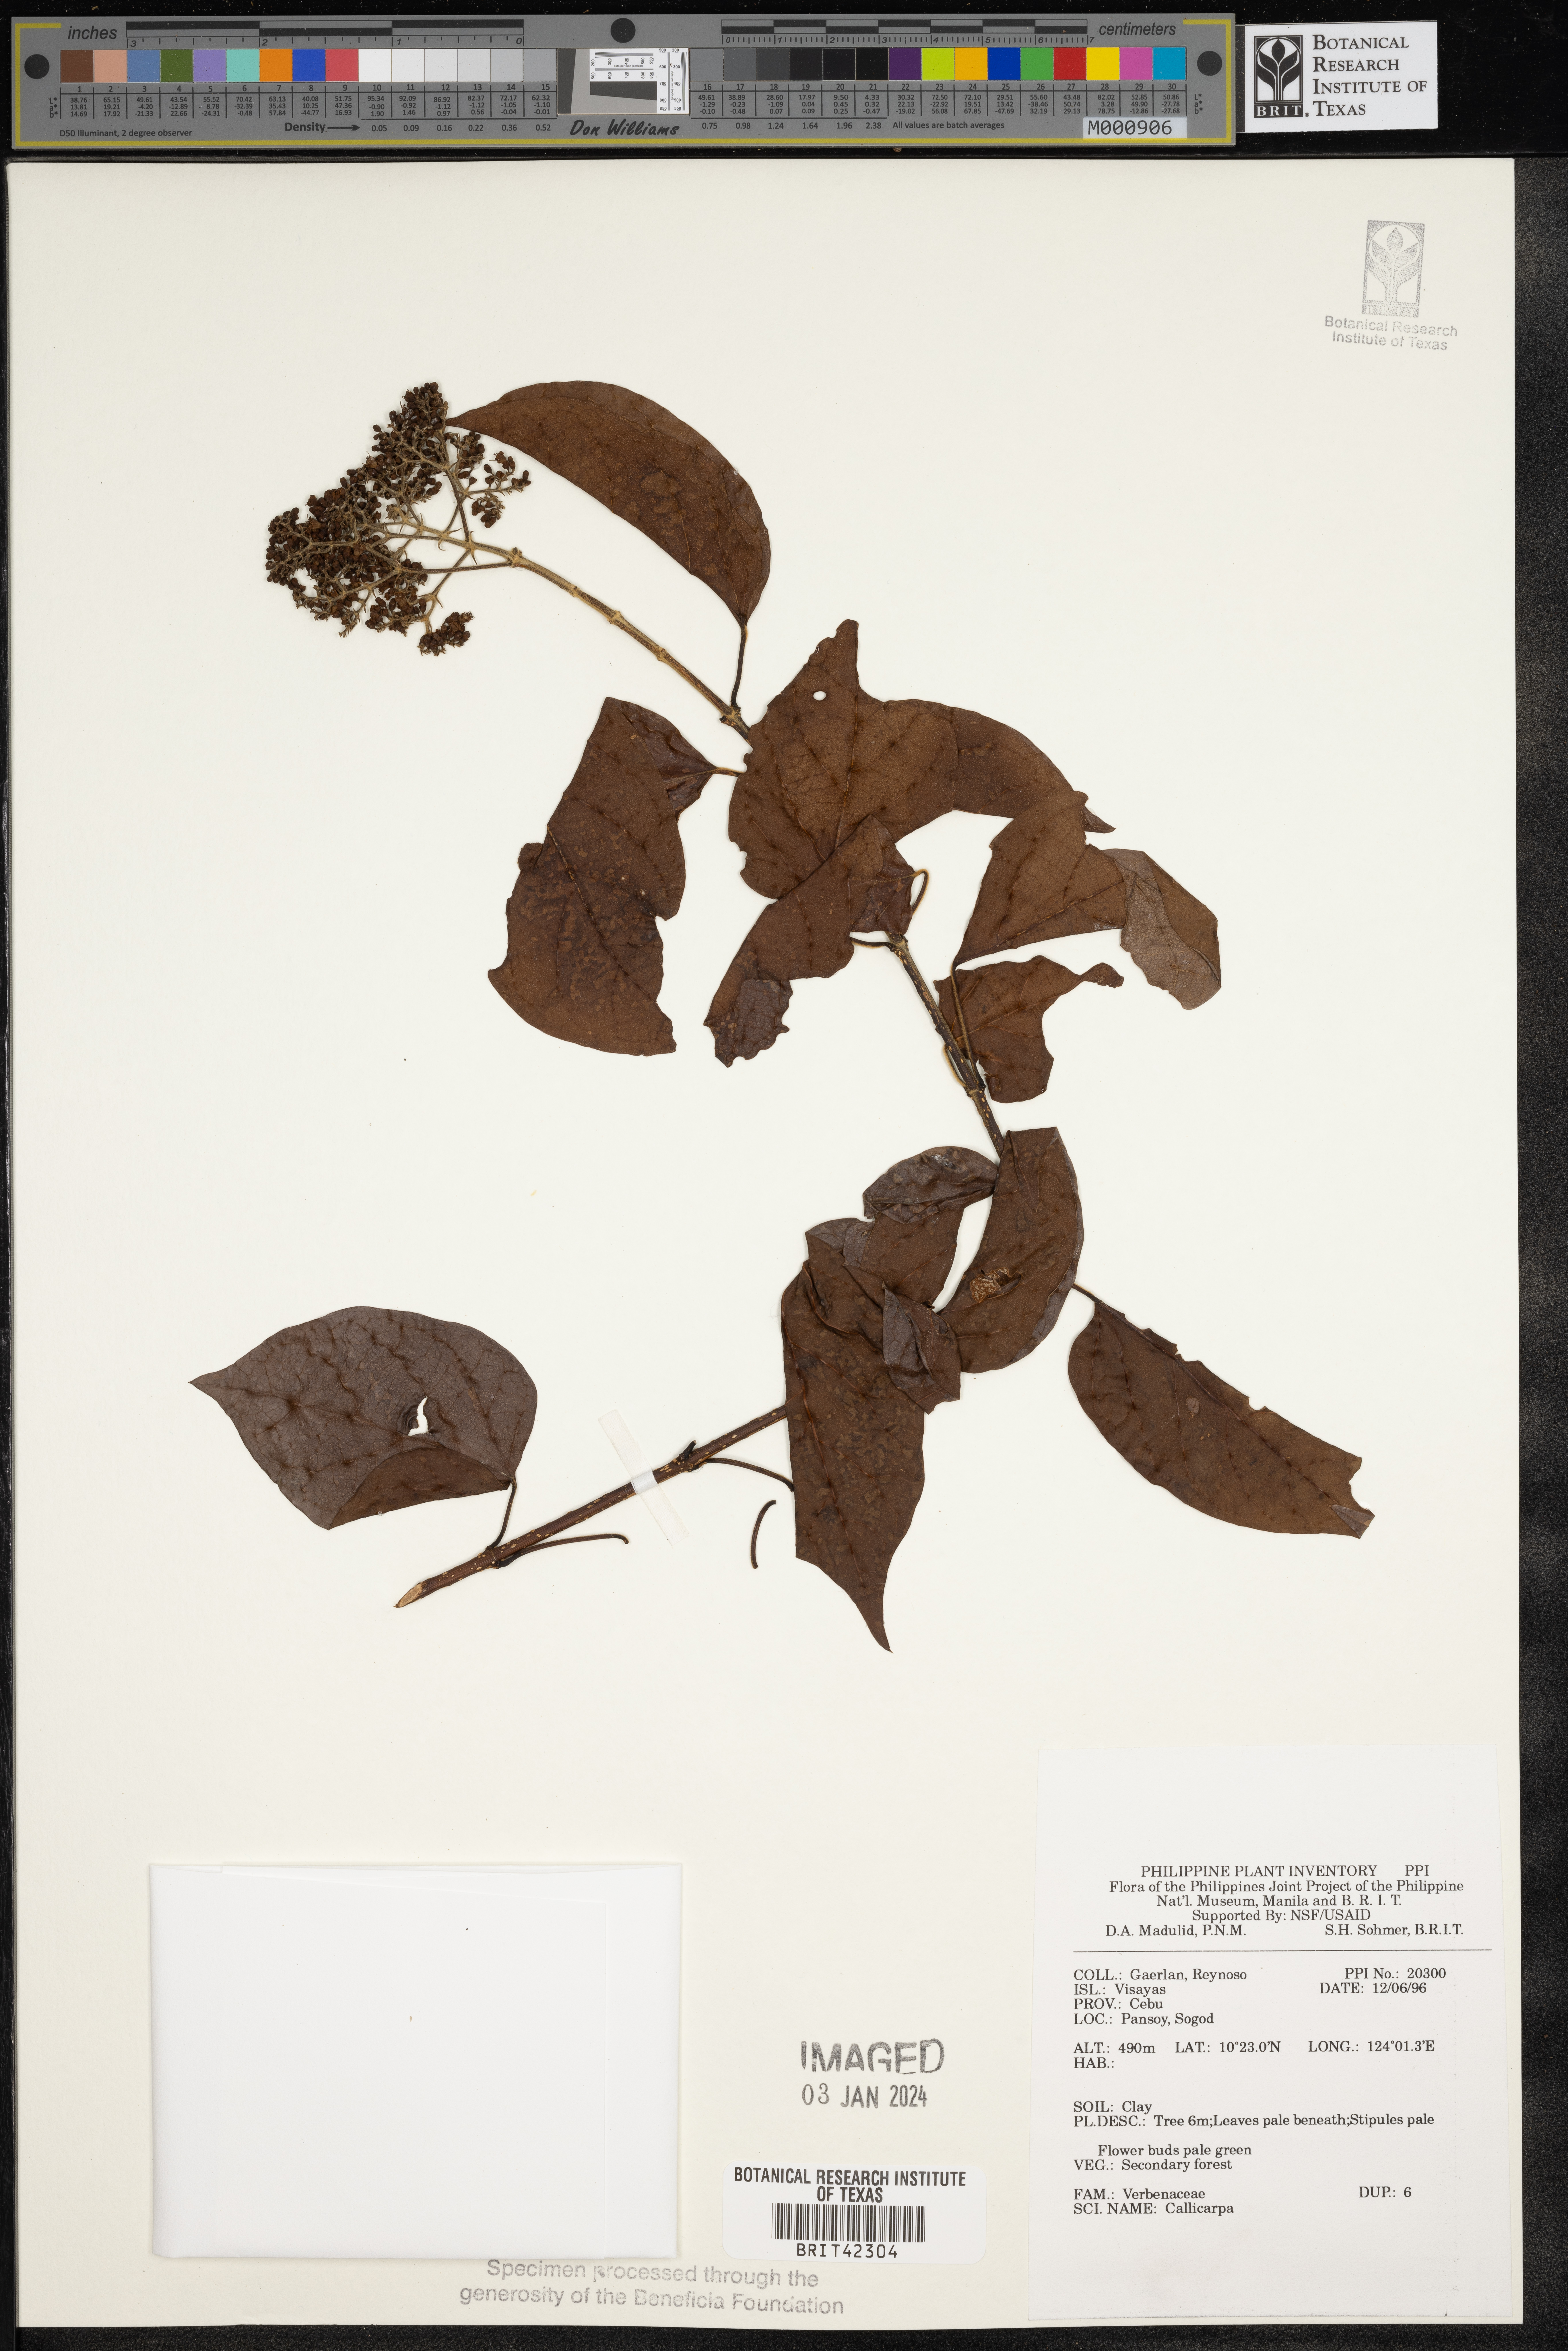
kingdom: Plantae
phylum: Tracheophyta
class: Magnoliopsida
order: Lamiales
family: Lamiaceae
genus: Callicarpa
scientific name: Callicarpa
